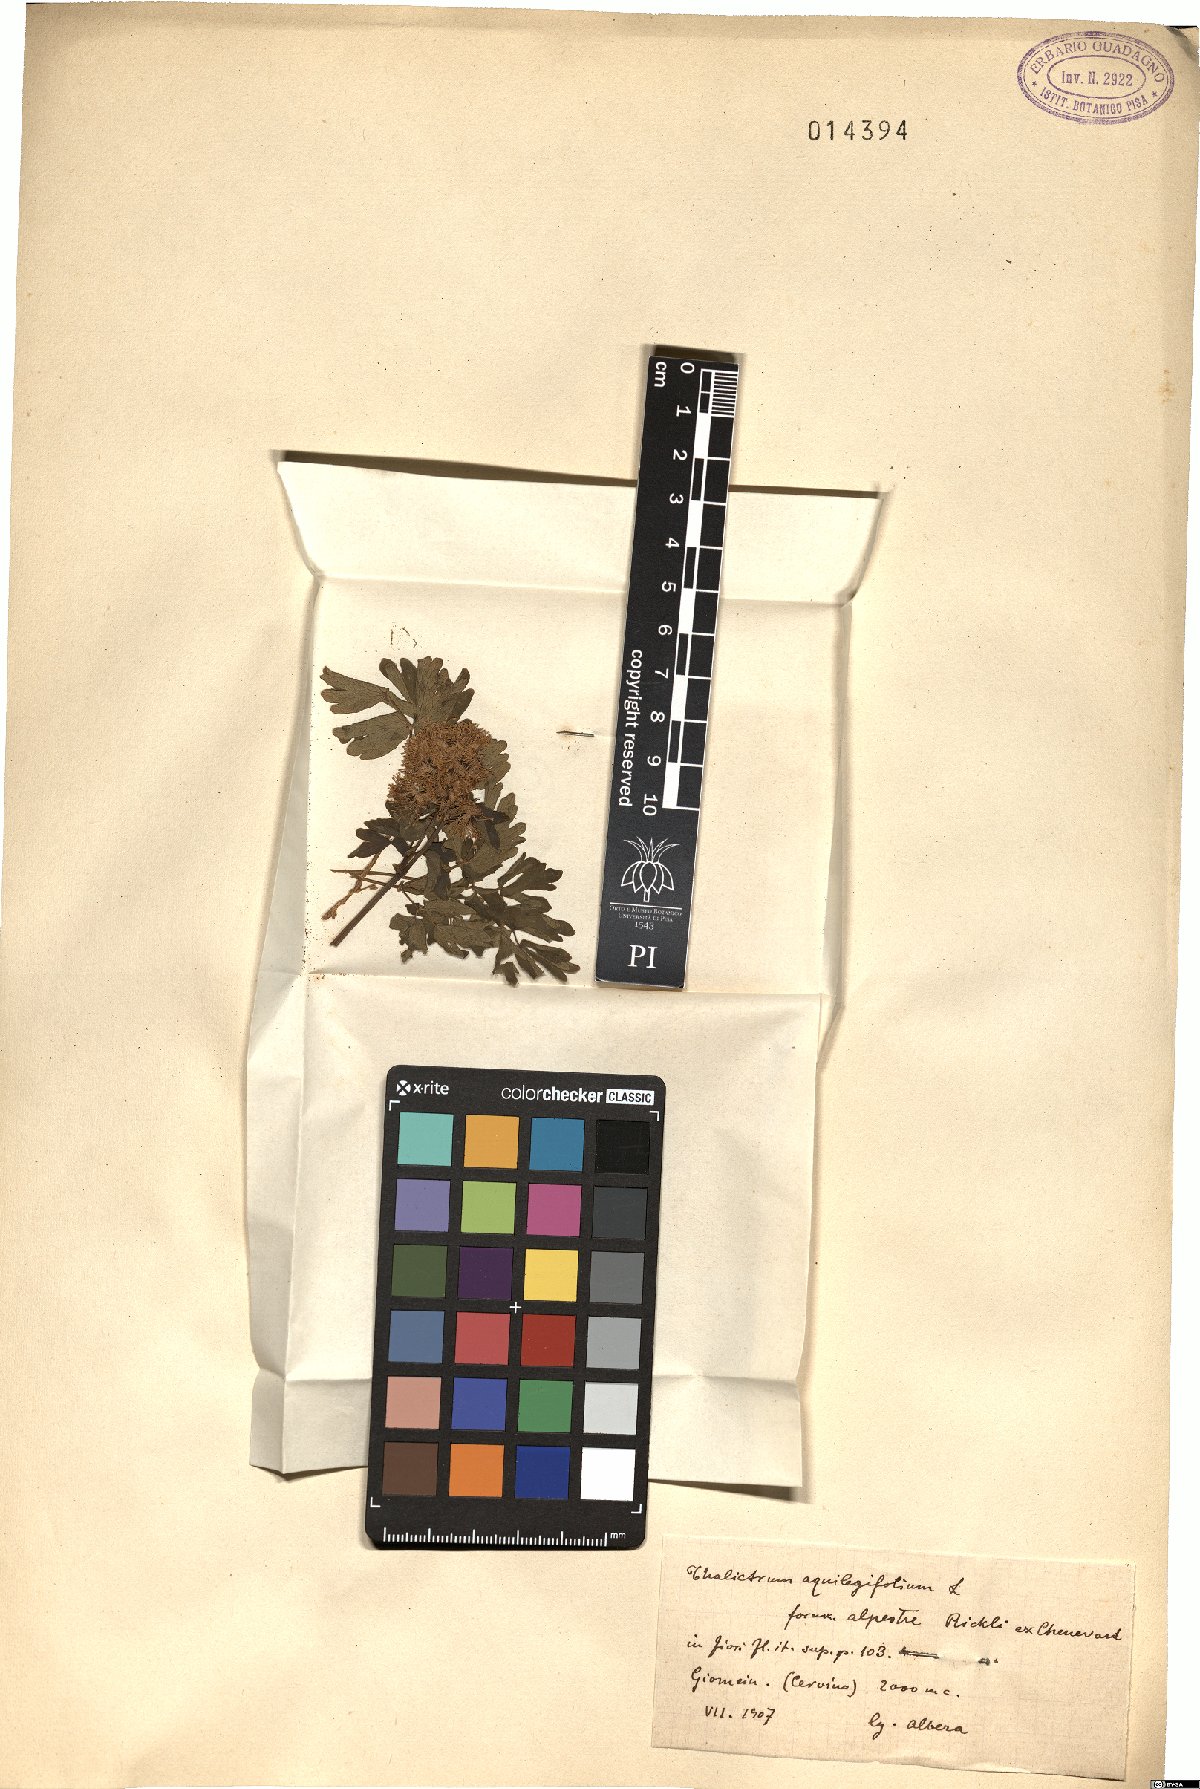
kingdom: Plantae
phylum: Tracheophyta
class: Magnoliopsida
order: Ranunculales
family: Ranunculaceae
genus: Thalictrum
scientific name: Thalictrum aquilegiifolium
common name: French meadow-rue
